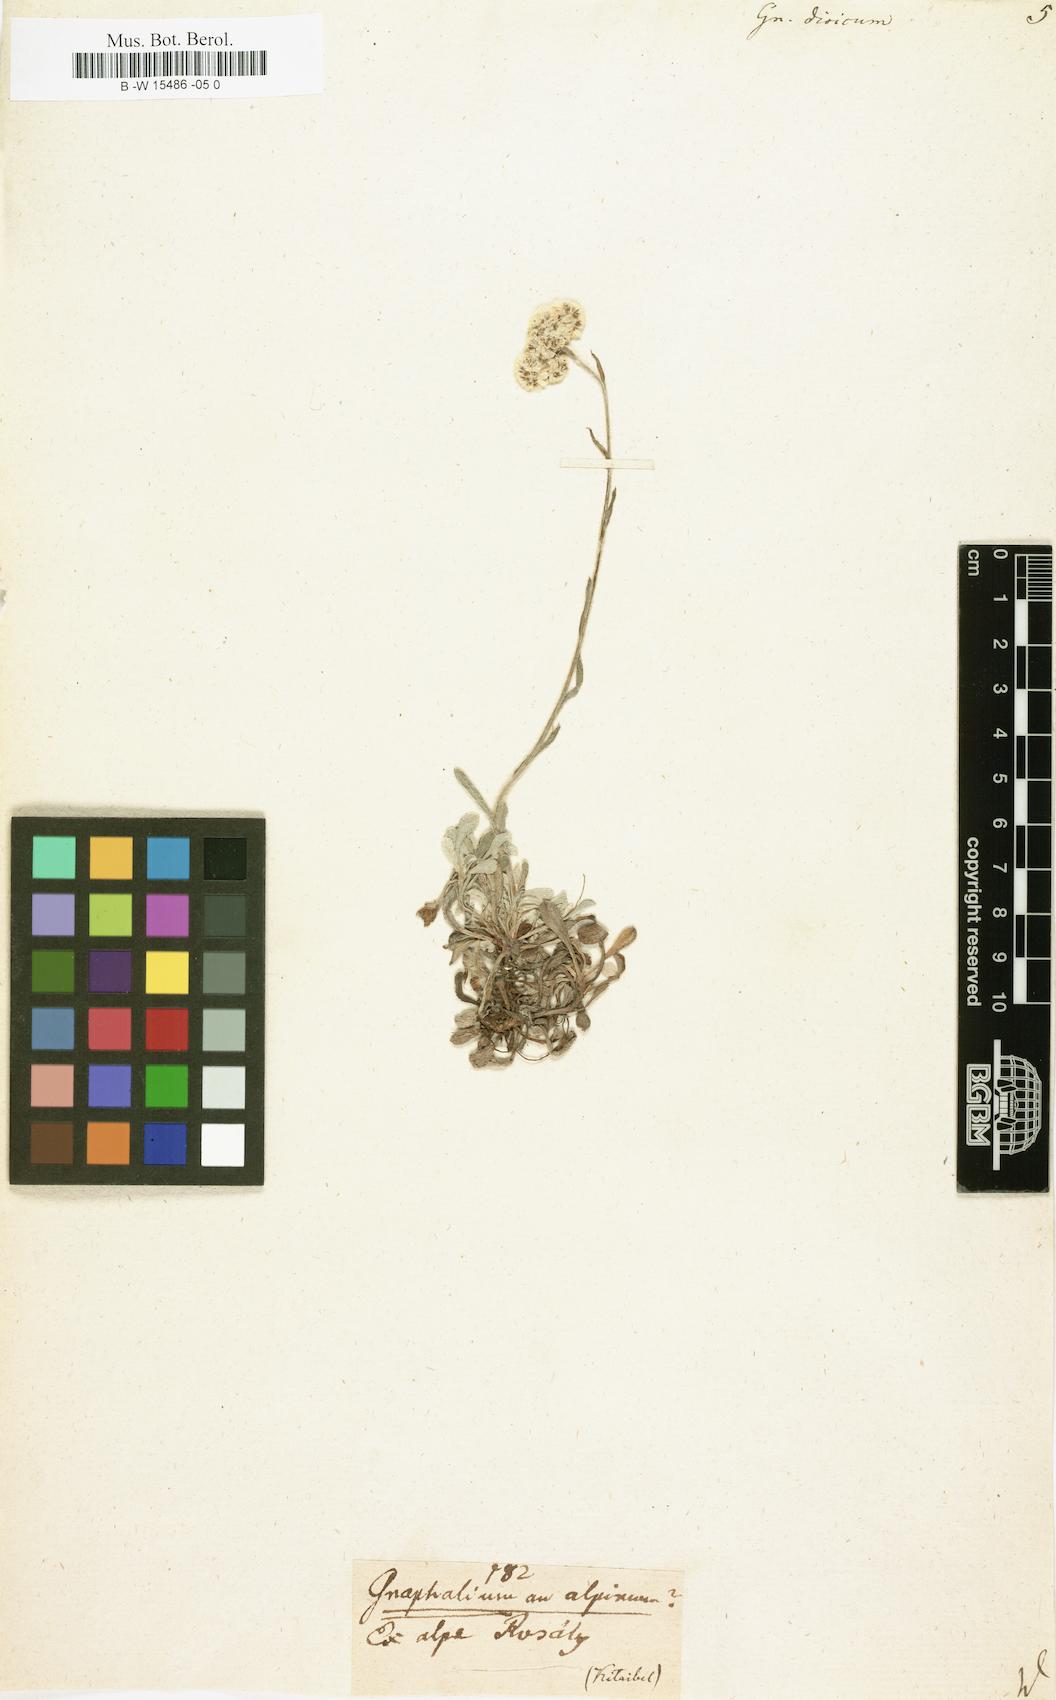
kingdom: Plantae
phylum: Tracheophyta
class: Magnoliopsida
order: Asterales
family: Asteraceae
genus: Antennaria
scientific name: Antennaria dioica
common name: Mountain everlasting
